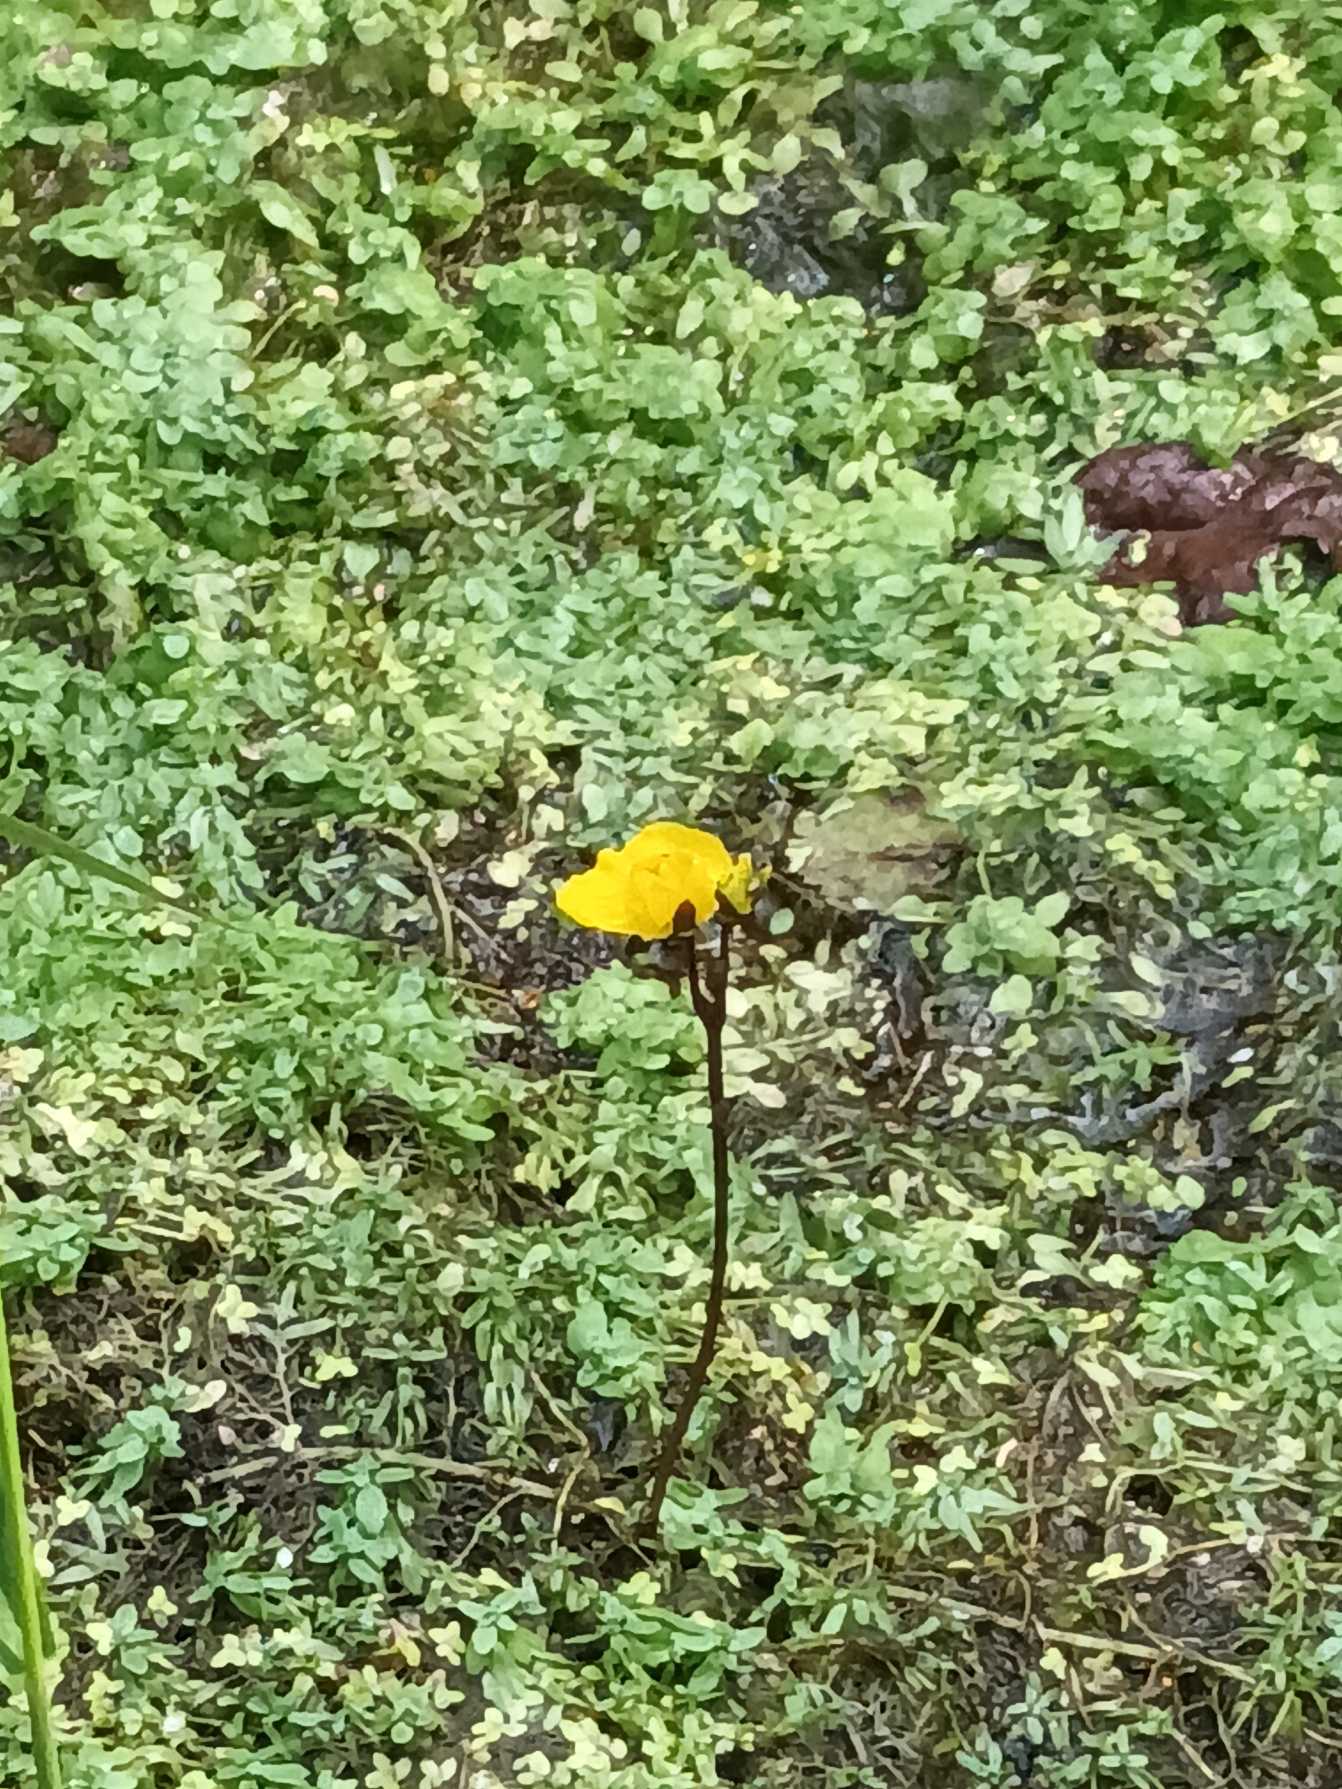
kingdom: Plantae
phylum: Tracheophyta
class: Magnoliopsida
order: Lamiales
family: Lentibulariaceae
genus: Utricularia
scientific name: Utricularia australis
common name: Slank blærerod
